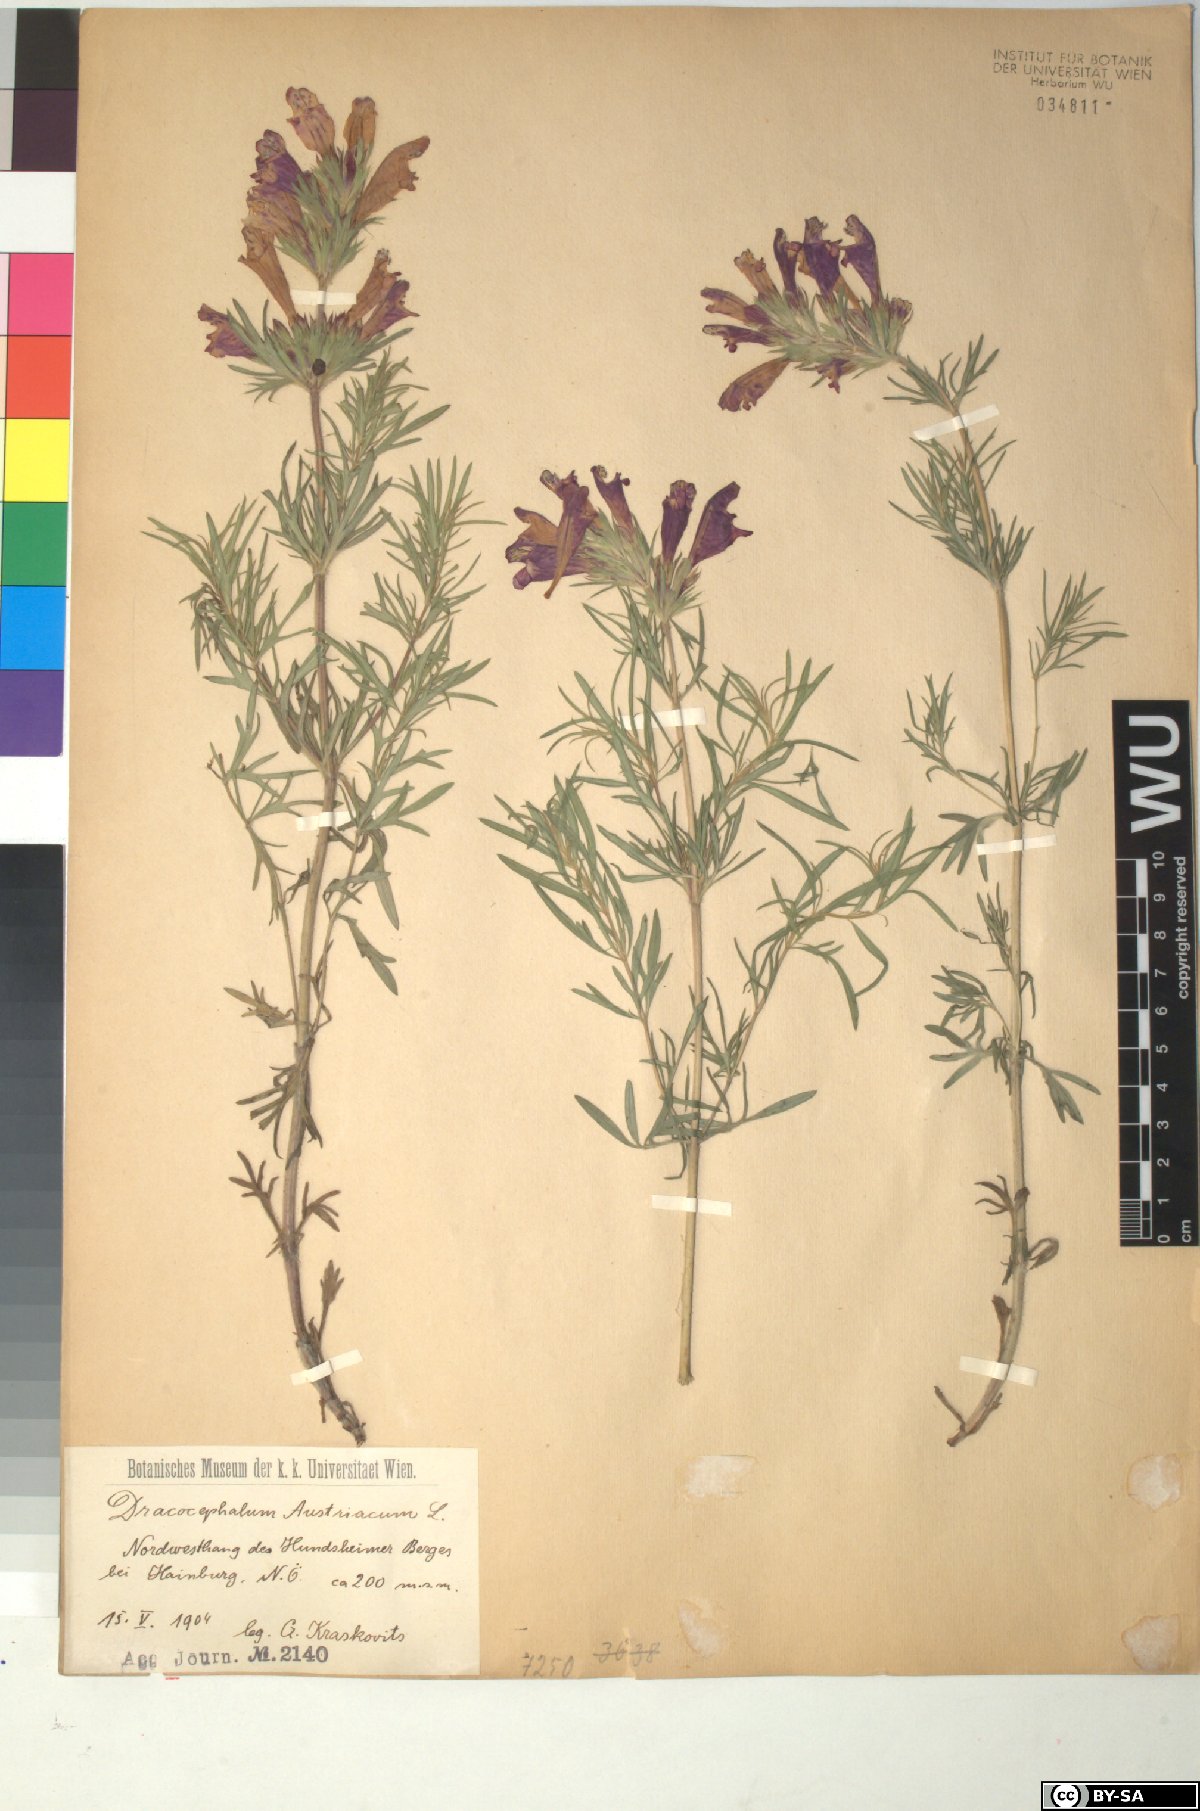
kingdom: Plantae
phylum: Tracheophyta
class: Magnoliopsida
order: Lamiales
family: Lamiaceae
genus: Dracocephalum
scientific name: Dracocephalum austriacum
